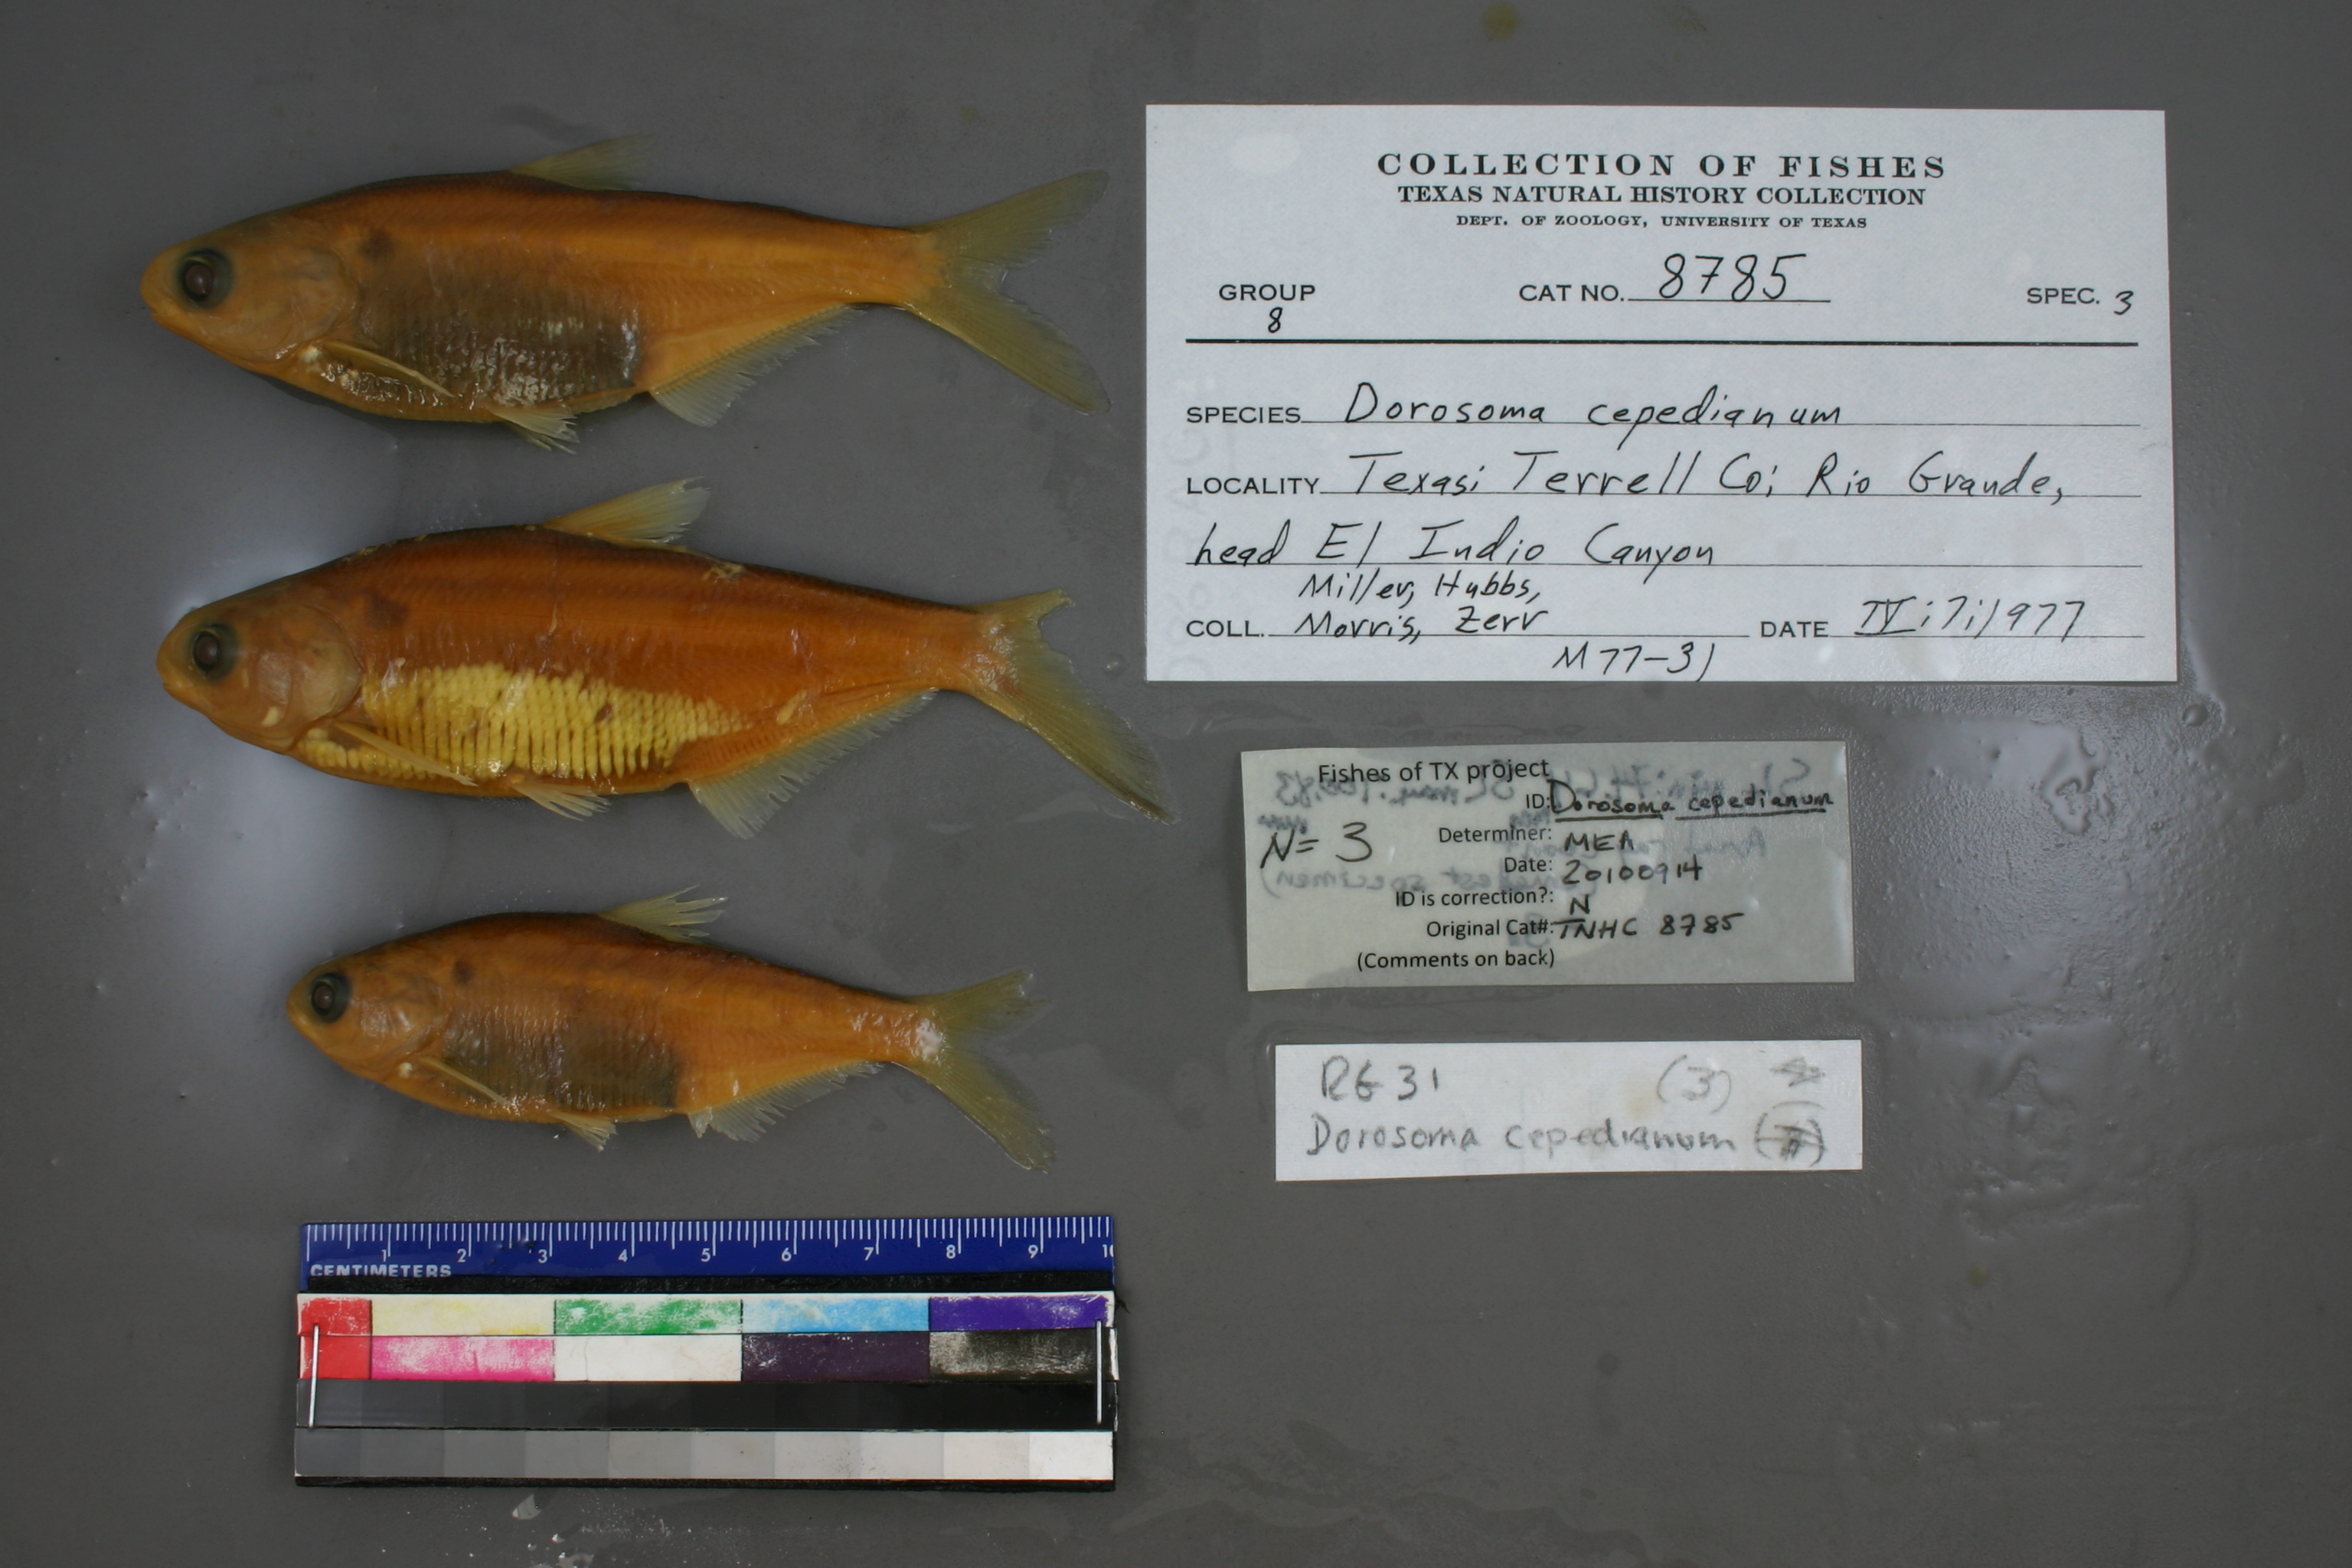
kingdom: Animalia
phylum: Chordata
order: Clupeiformes
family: Clupeidae
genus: Dorosoma
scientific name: Dorosoma cepedianum
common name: Gizzard shad
